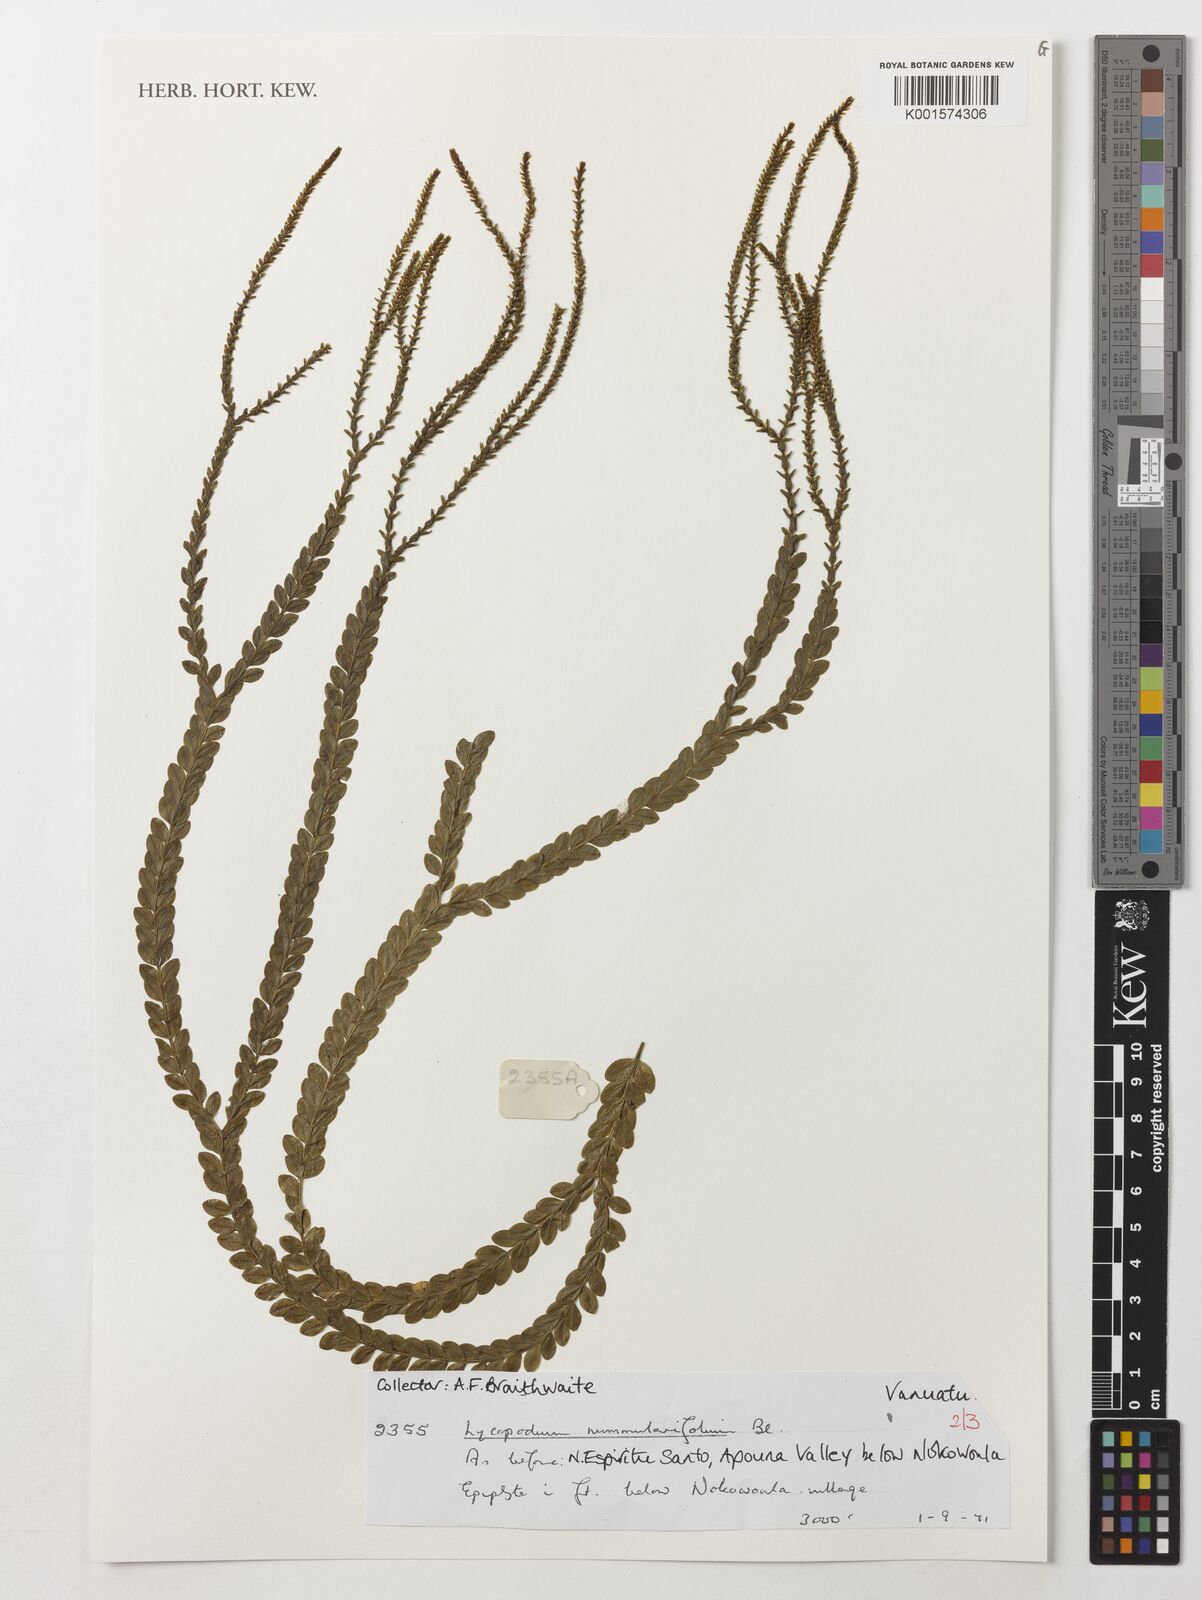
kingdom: Plantae
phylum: Tracheophyta
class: Lycopodiopsida
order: Lycopodiales
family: Lycopodiaceae
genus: Phlegmariurus
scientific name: Phlegmariurus nummulariifolius
